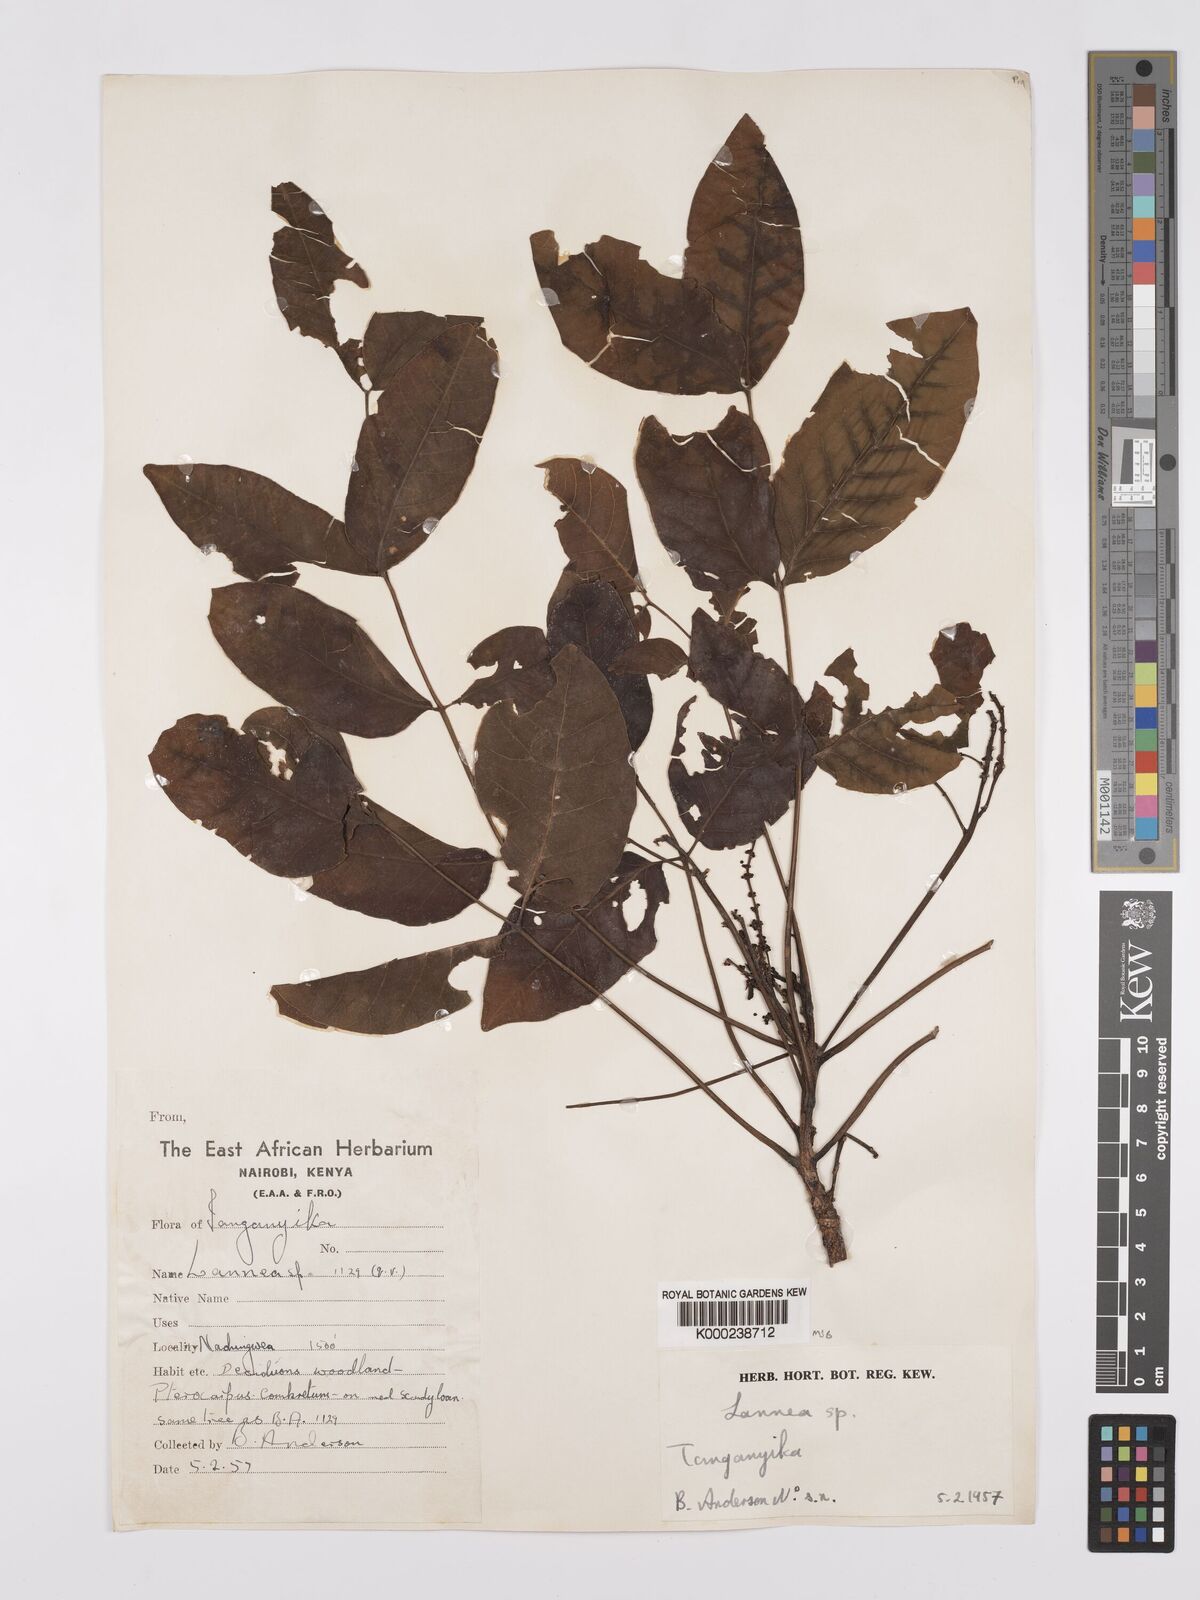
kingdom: Plantae
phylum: Tracheophyta
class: Magnoliopsida
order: Sapindales
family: Anacardiaceae
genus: Lannea
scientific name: Lannea schweinfurthii
